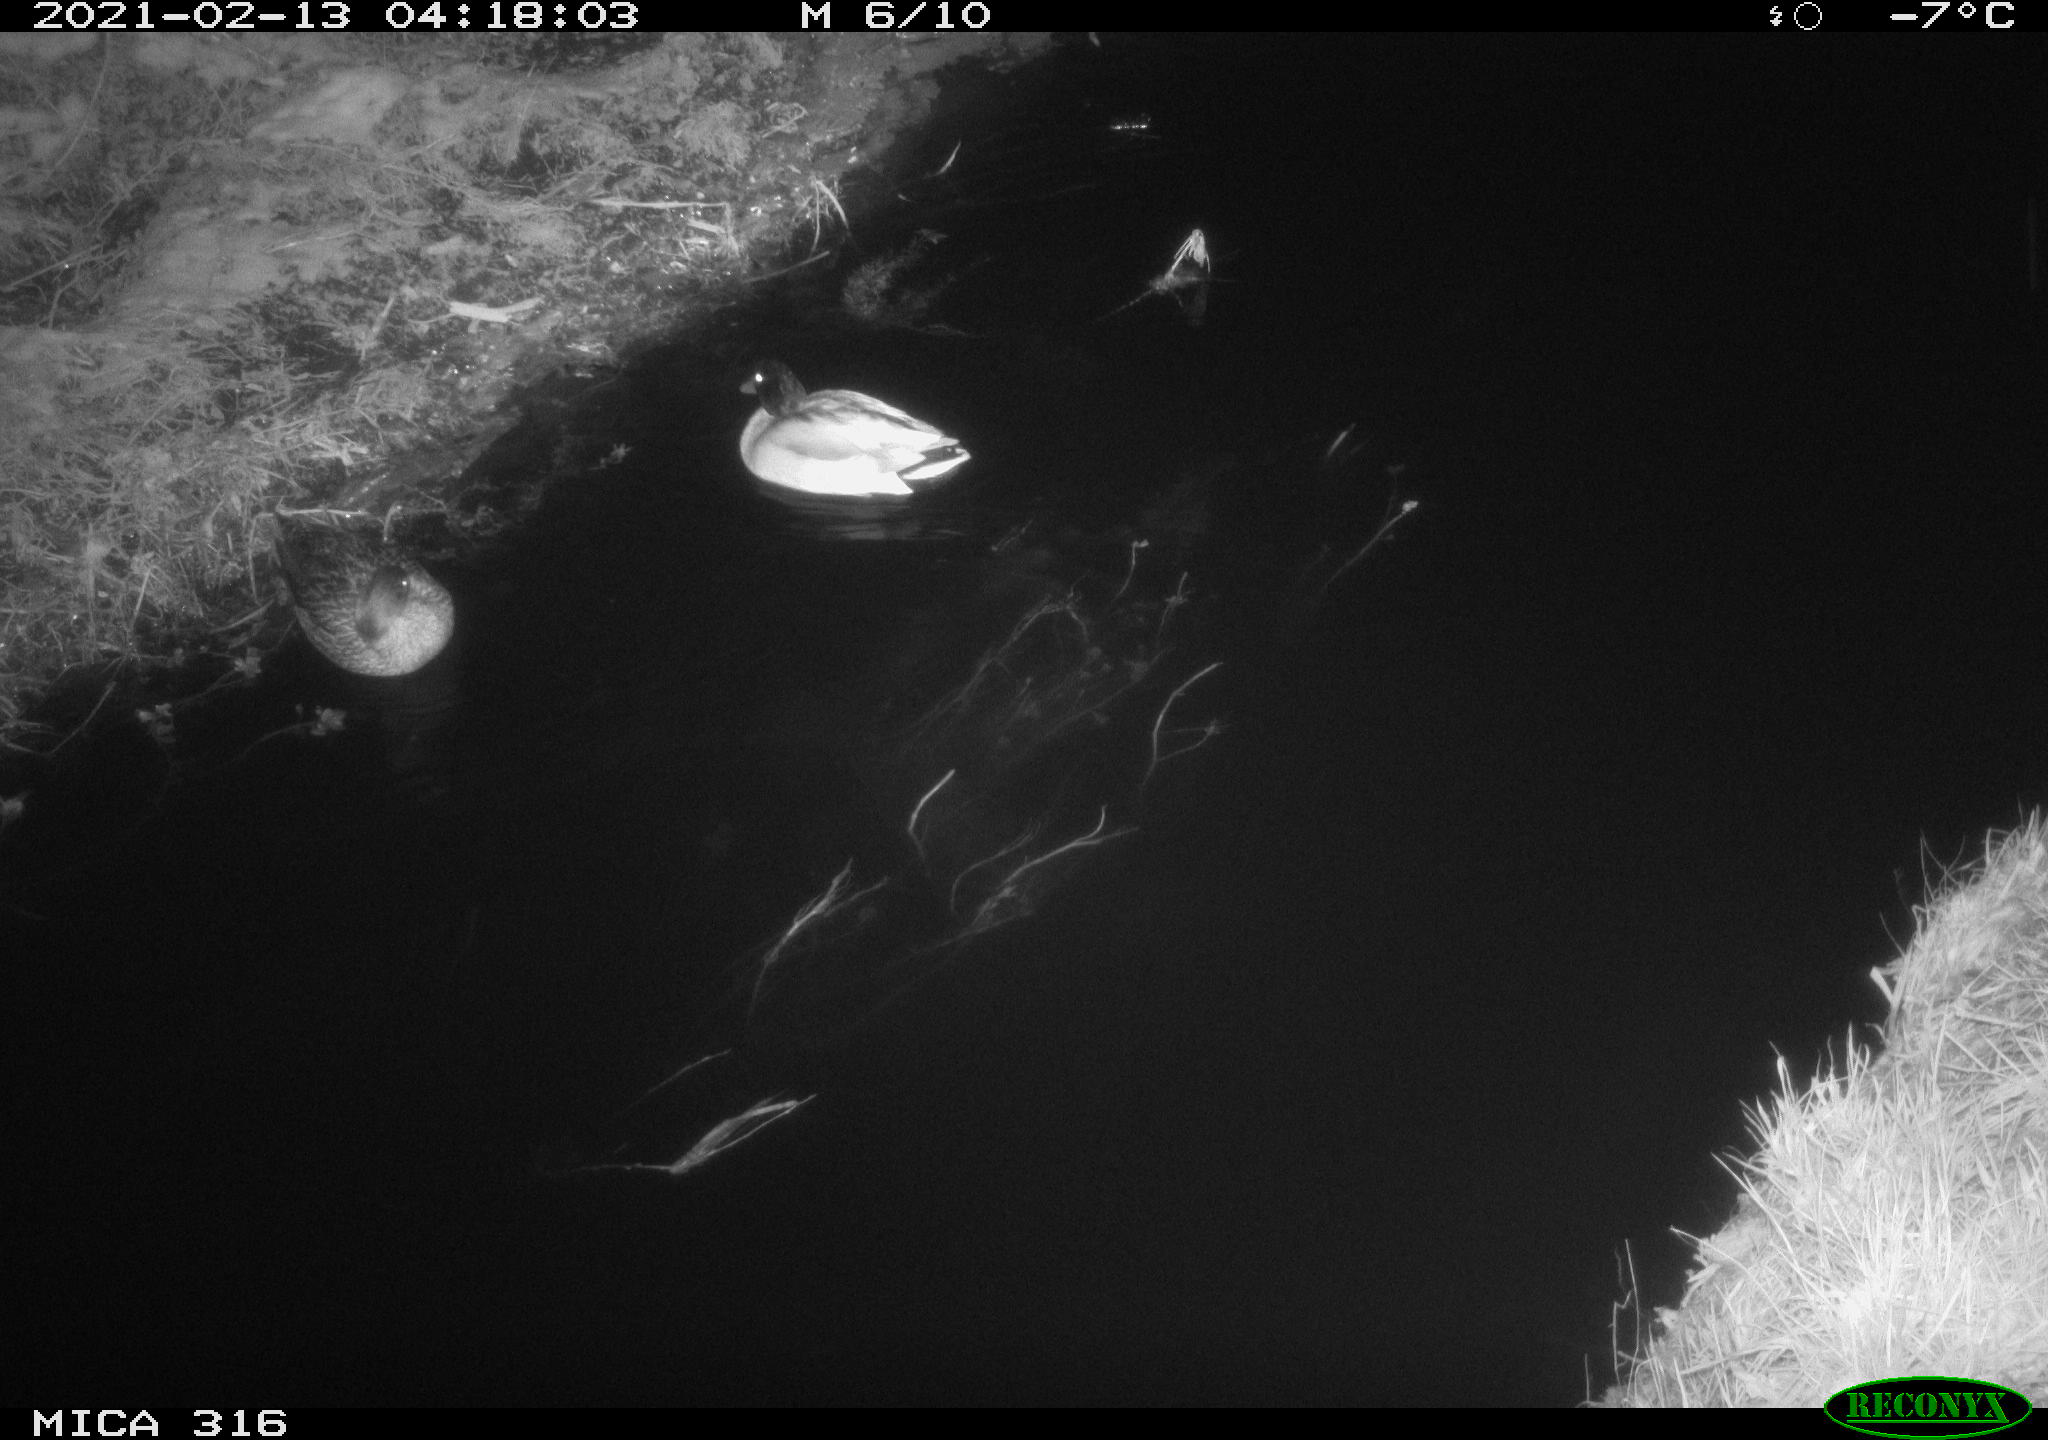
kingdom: Animalia
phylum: Chordata
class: Aves
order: Anseriformes
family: Anatidae
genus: Anas
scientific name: Anas platyrhynchos
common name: Mallard
